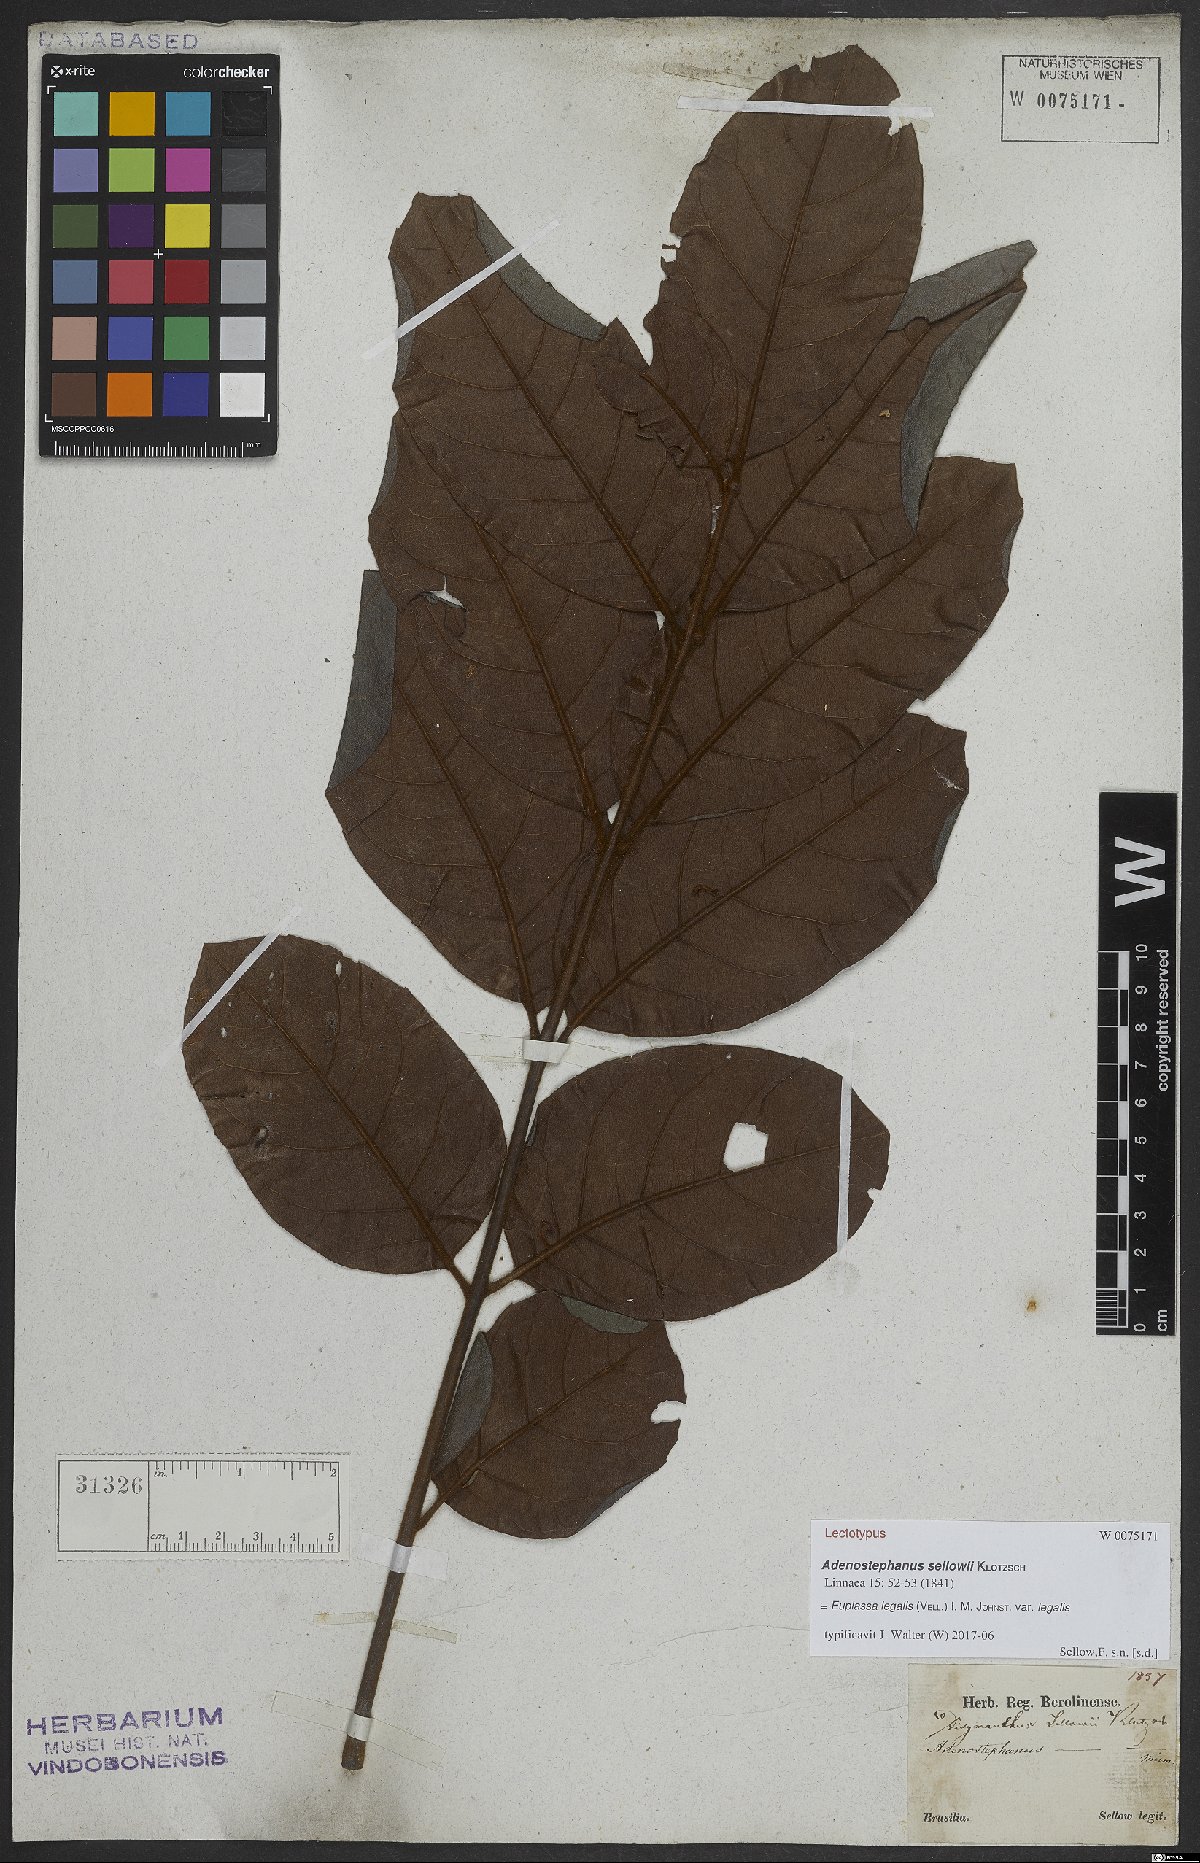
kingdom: Plantae
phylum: Tracheophyta
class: Magnoliopsida
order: Proteales
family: Proteaceae
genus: Euplassa
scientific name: Euplassa legalis
